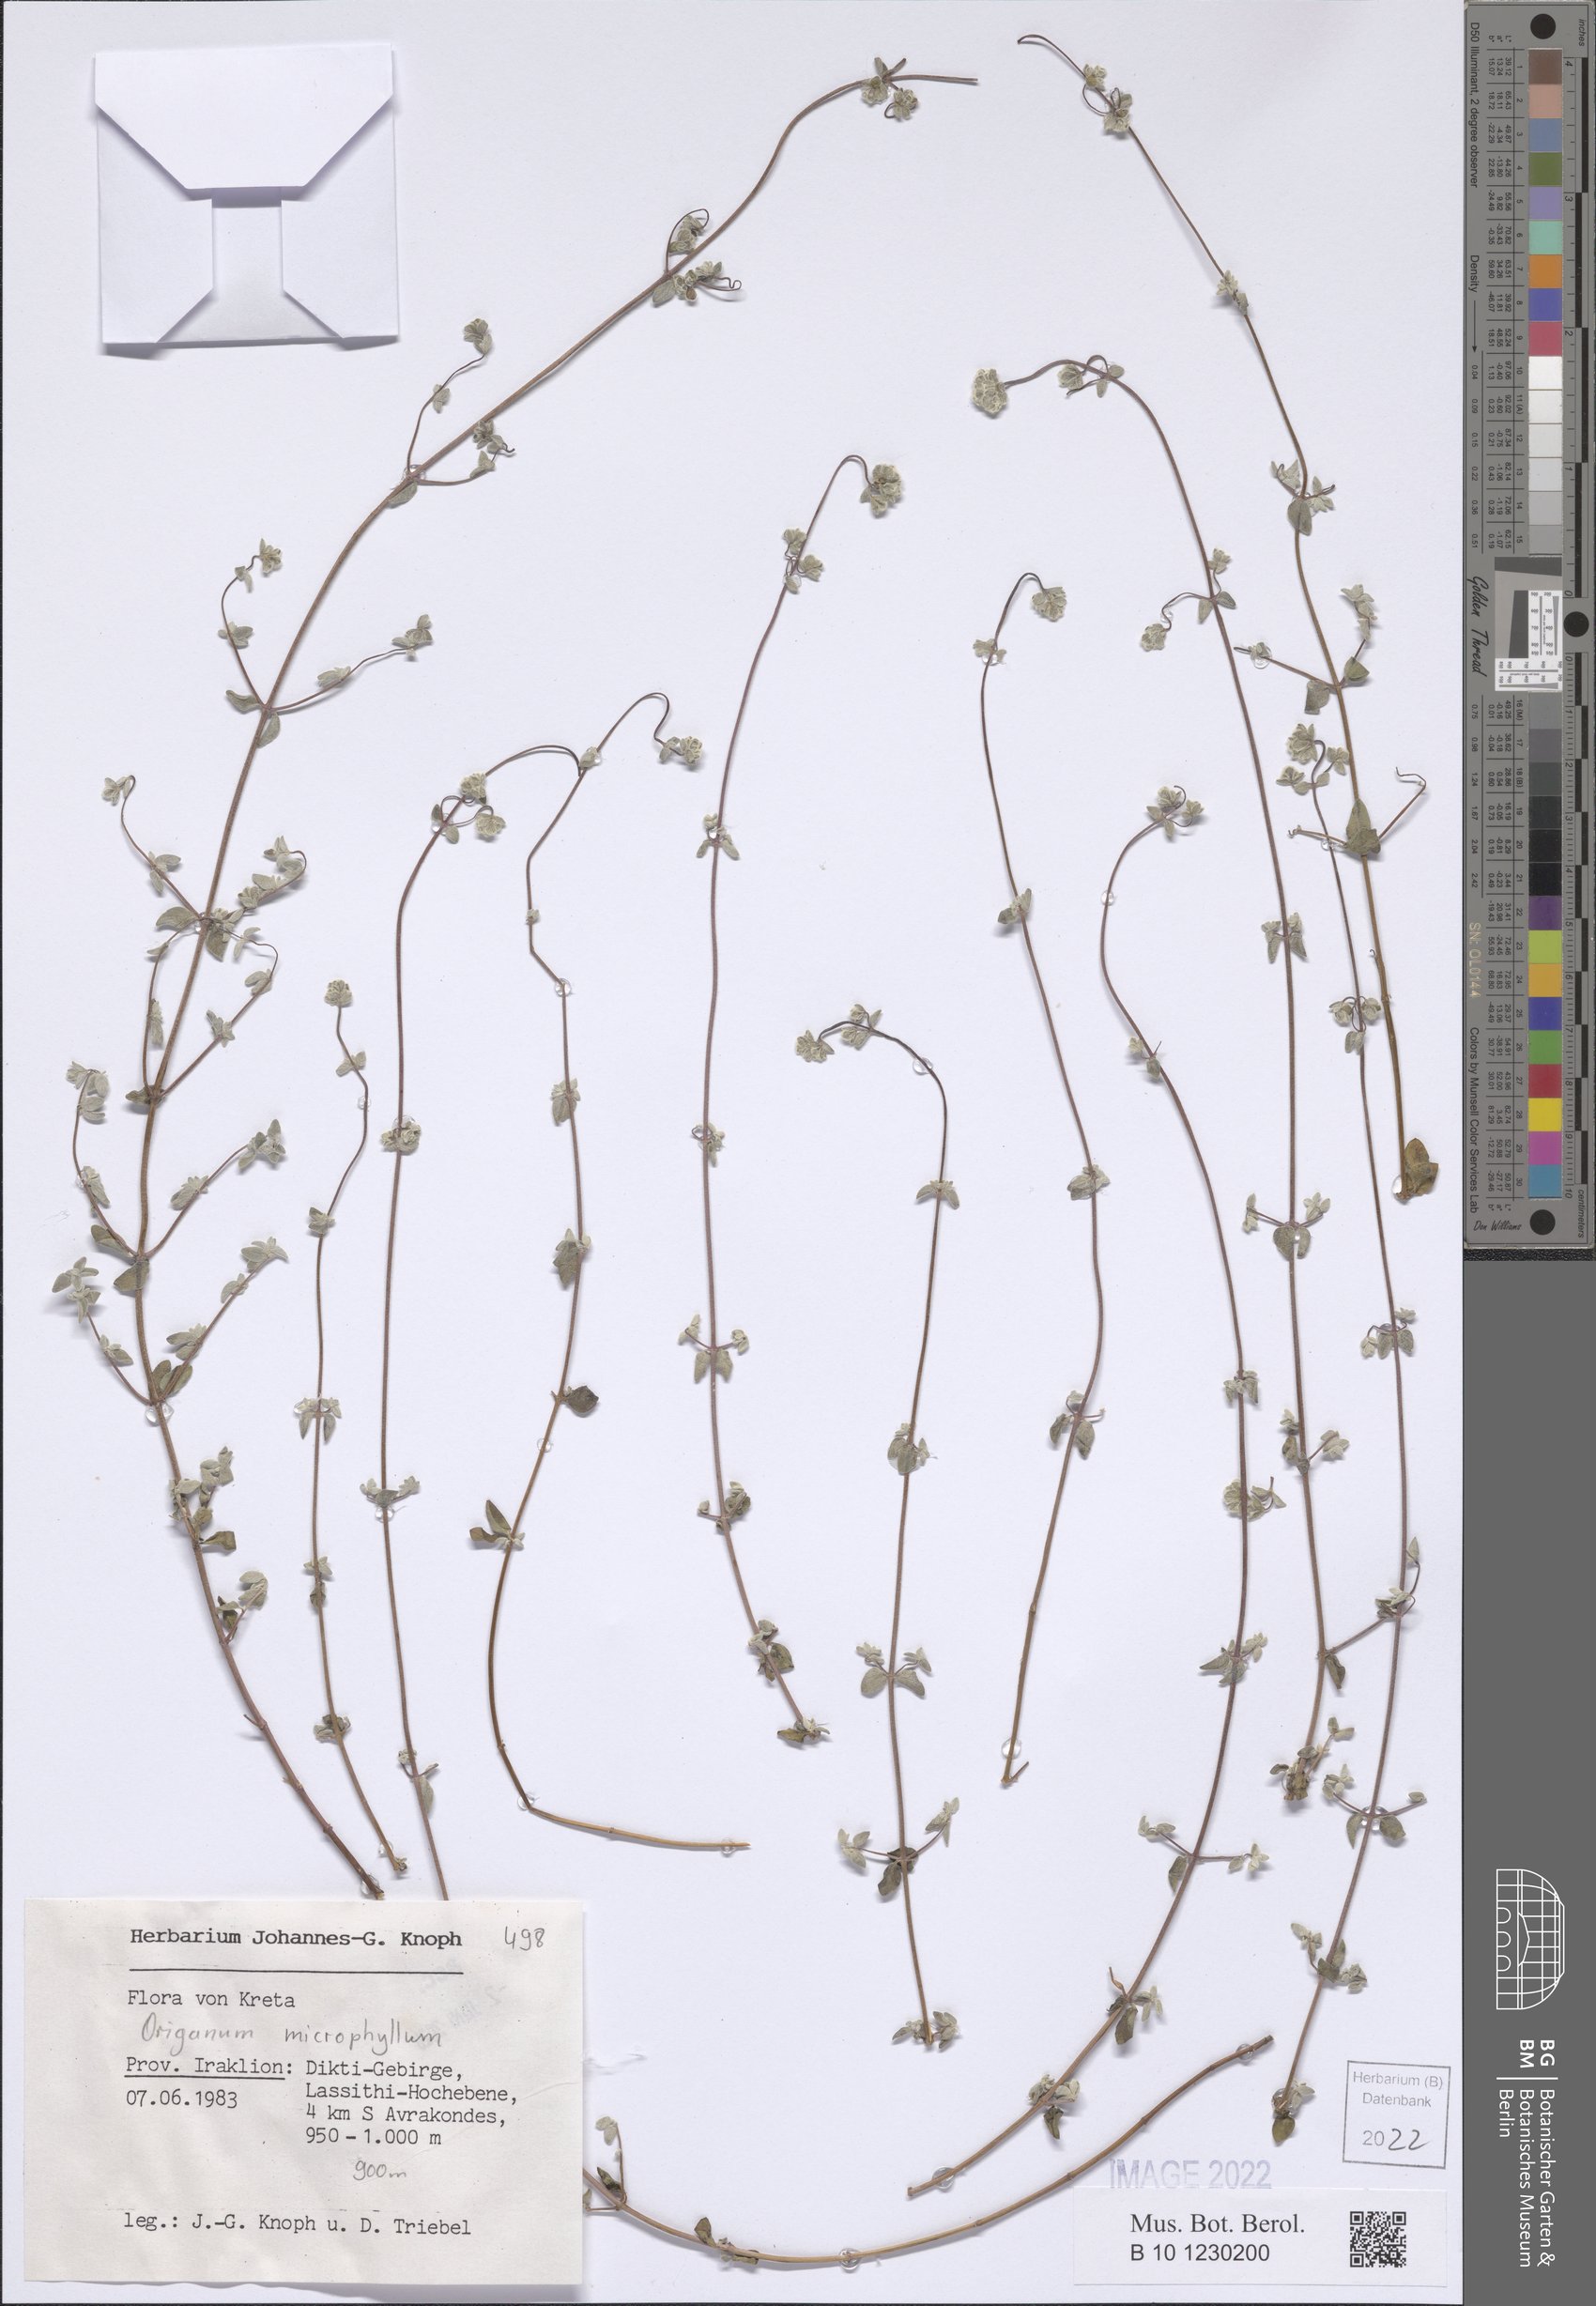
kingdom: Plantae
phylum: Tracheophyta
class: Magnoliopsida
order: Lamiales
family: Lamiaceae
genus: Origanum
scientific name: Origanum microphyllum
